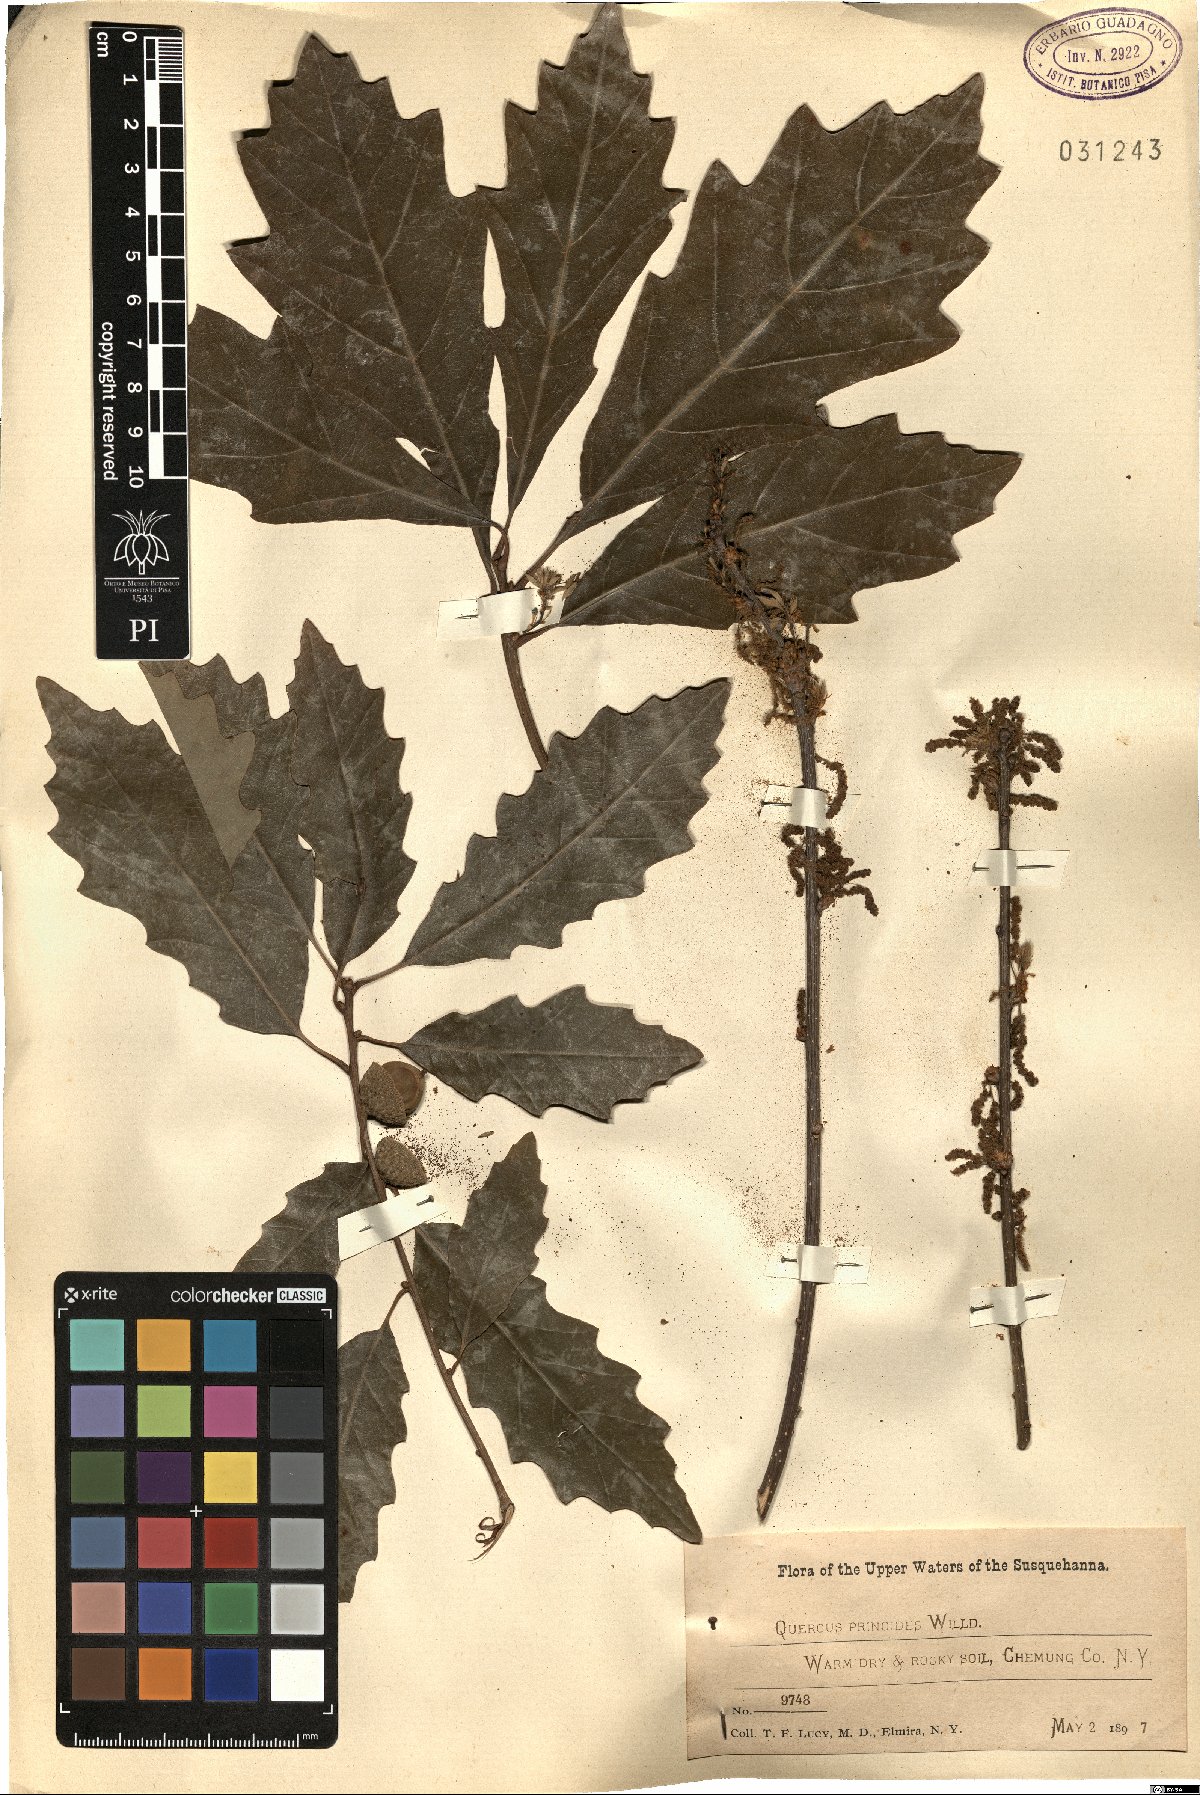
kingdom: Plantae
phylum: Tracheophyta
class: Magnoliopsida
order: Fagales
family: Fagaceae
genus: Quercus
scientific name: Quercus prinoides
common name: Dwarf chinkapin oak
